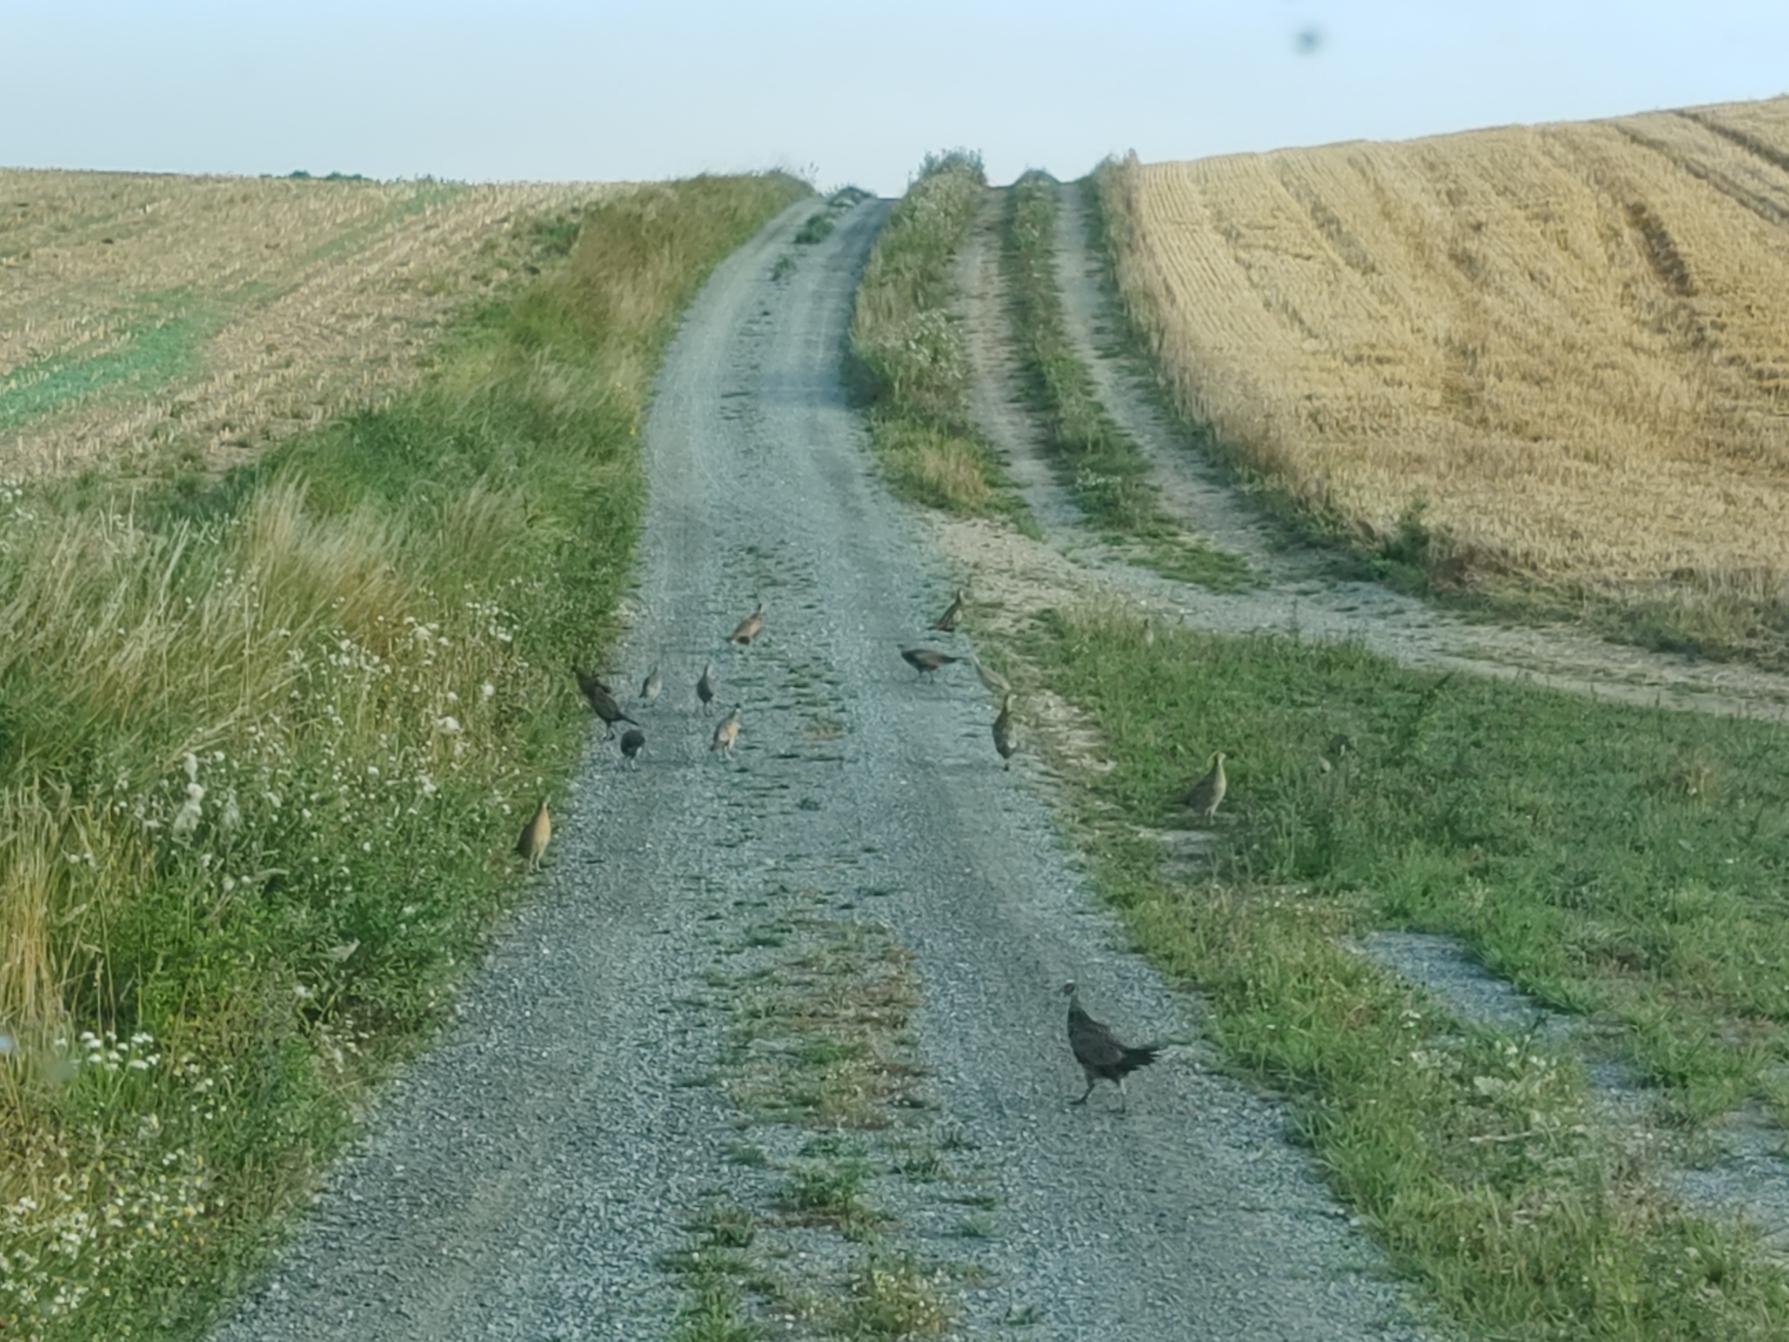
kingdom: Animalia
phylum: Chordata
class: Aves
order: Galliformes
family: Phasianidae
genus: Phasianus
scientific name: Phasianus colchicus
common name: Fasan
